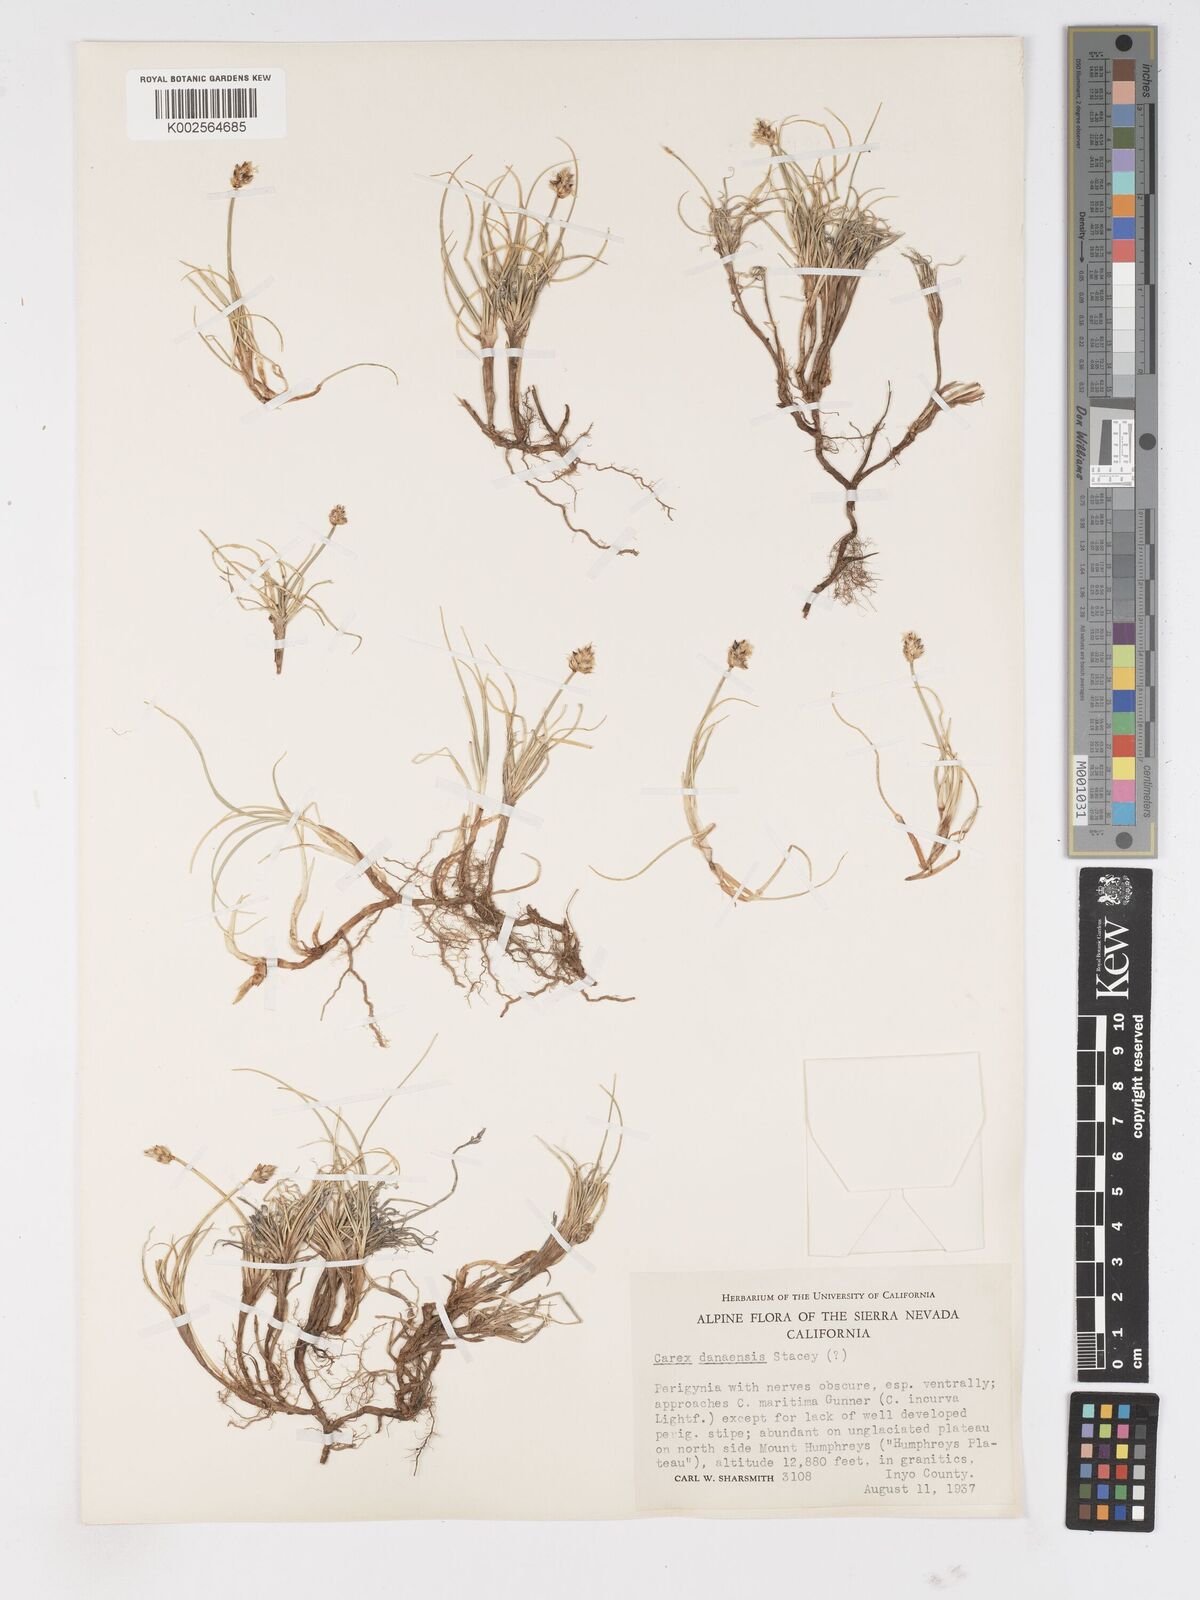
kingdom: Plantae
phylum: Tracheophyta
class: Liliopsida
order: Poales
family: Cyperaceae
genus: Carex
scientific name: Carex incurviformis
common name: Coastal sand sedge
